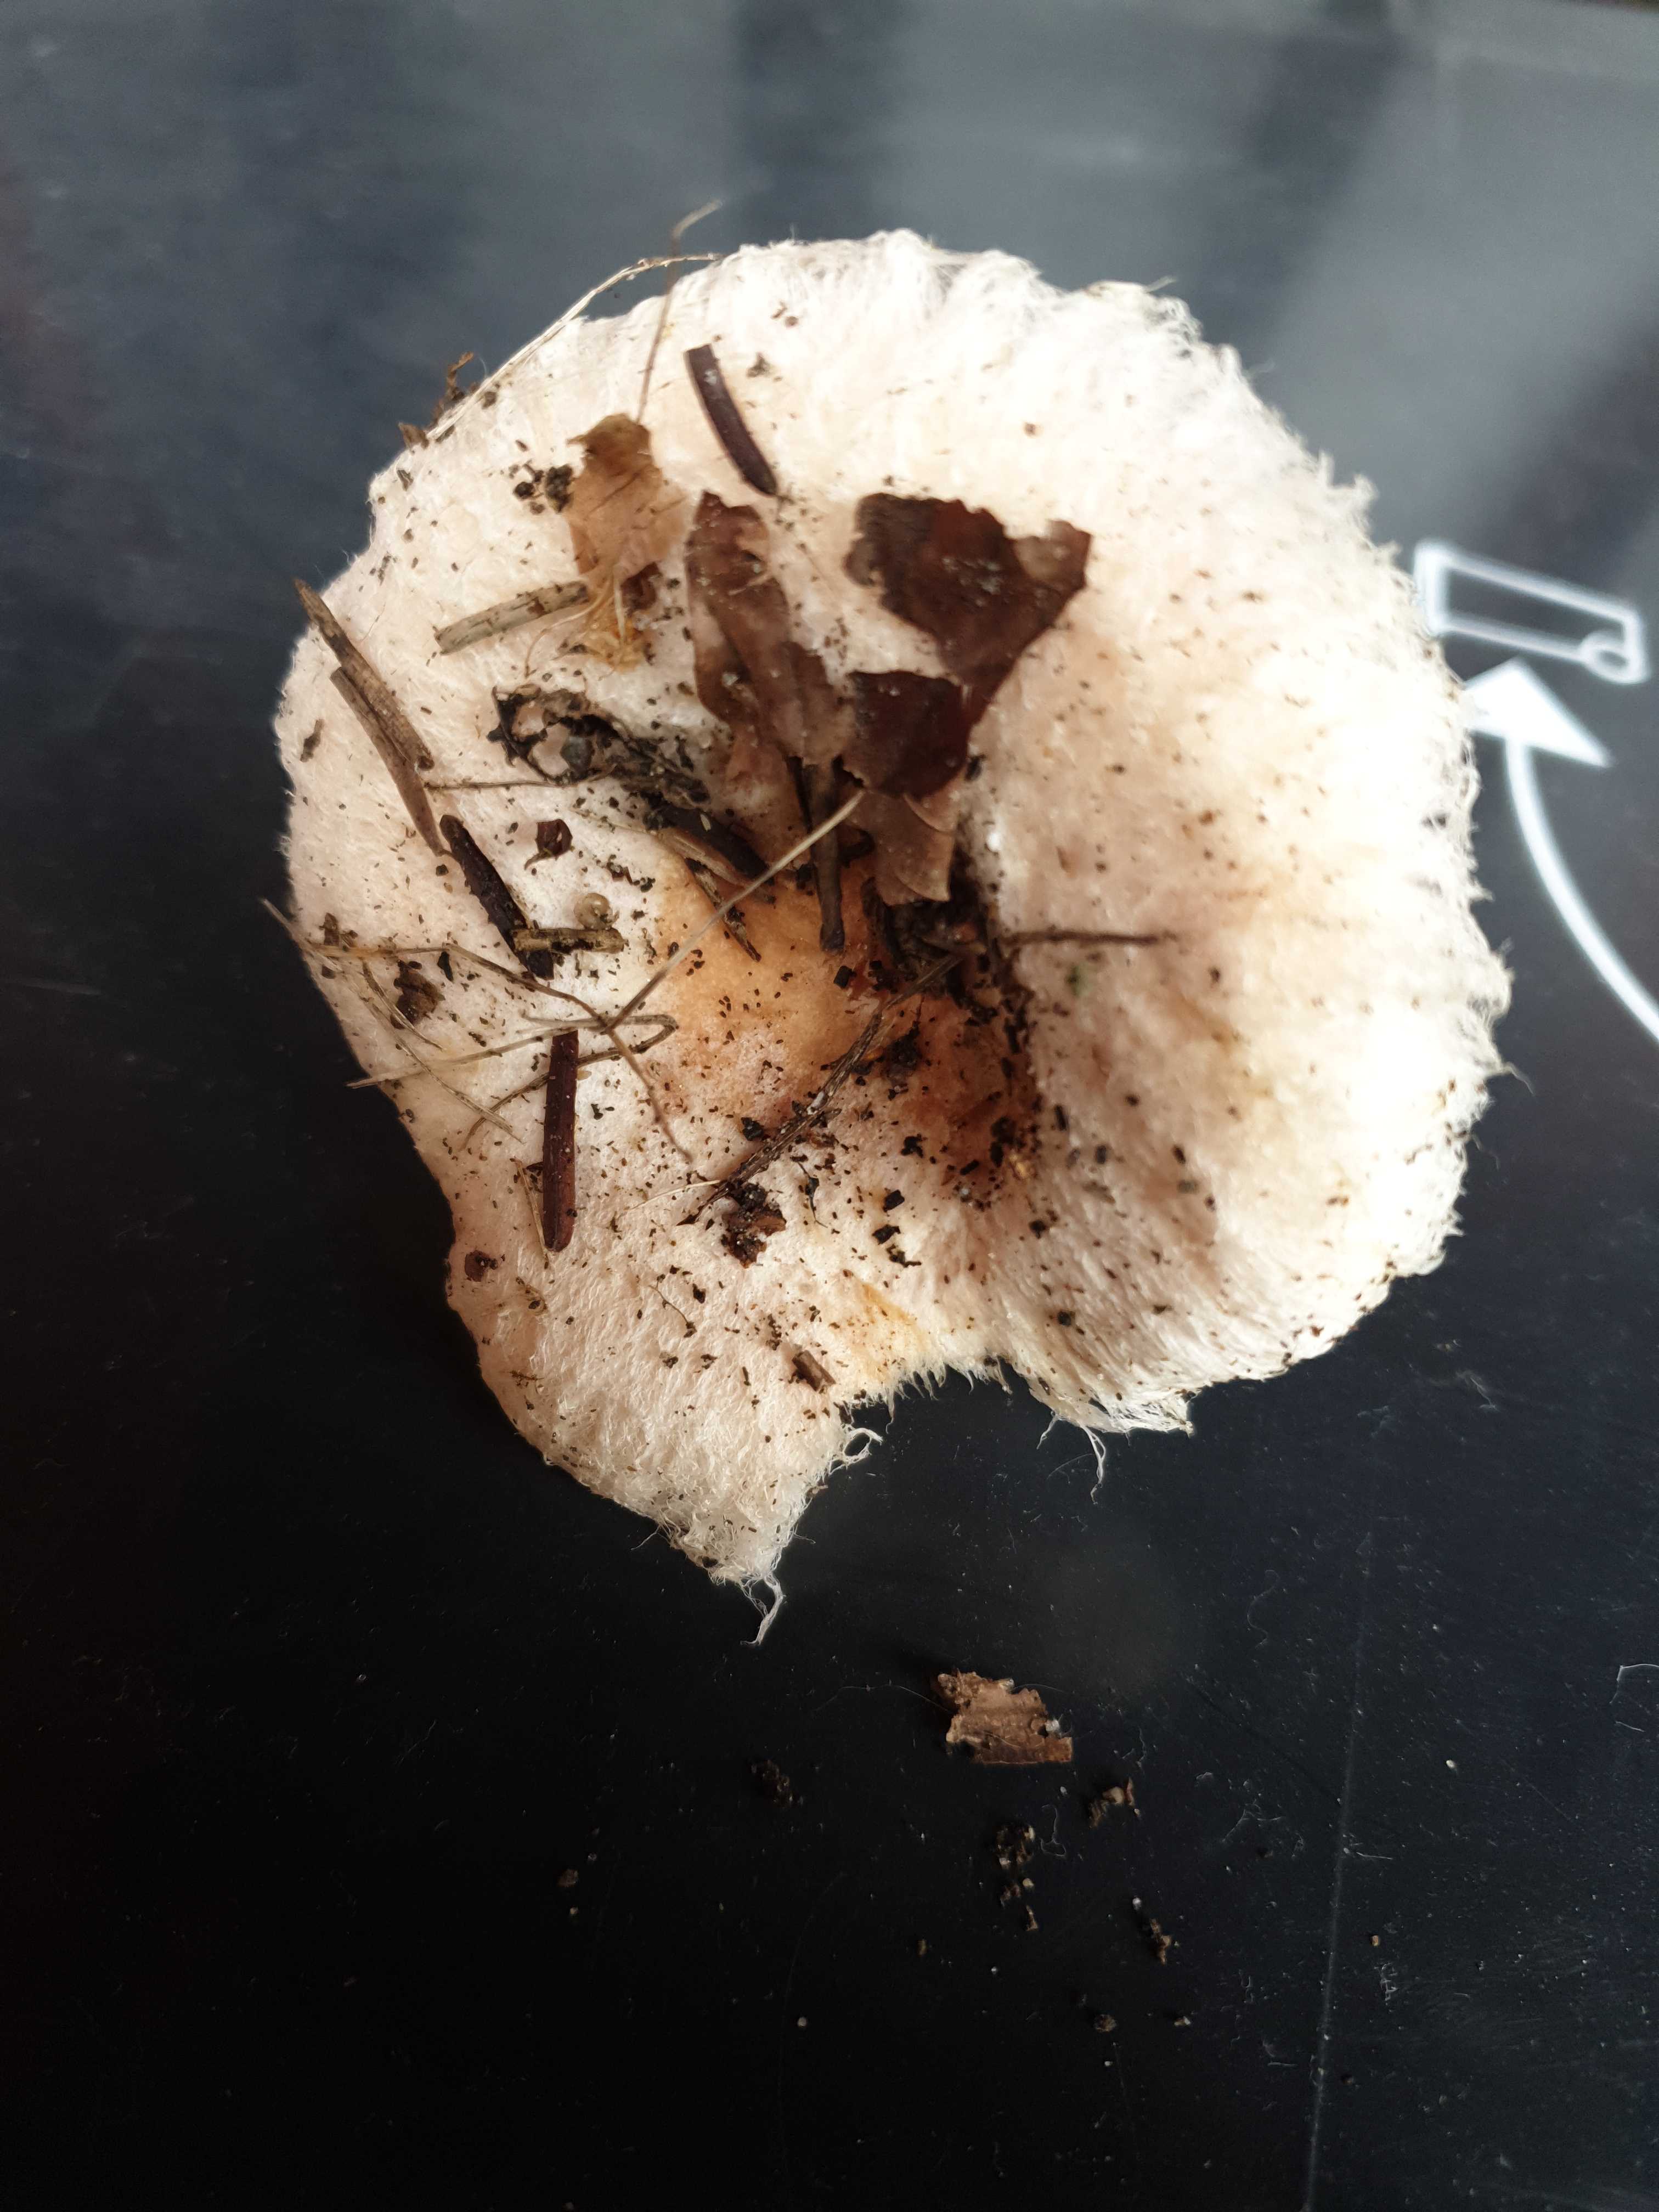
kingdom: Fungi
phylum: Basidiomycota
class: Agaricomycetes
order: Russulales
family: Russulaceae
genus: Lactarius
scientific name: Lactarius pubescens
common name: dunet mælkehat
